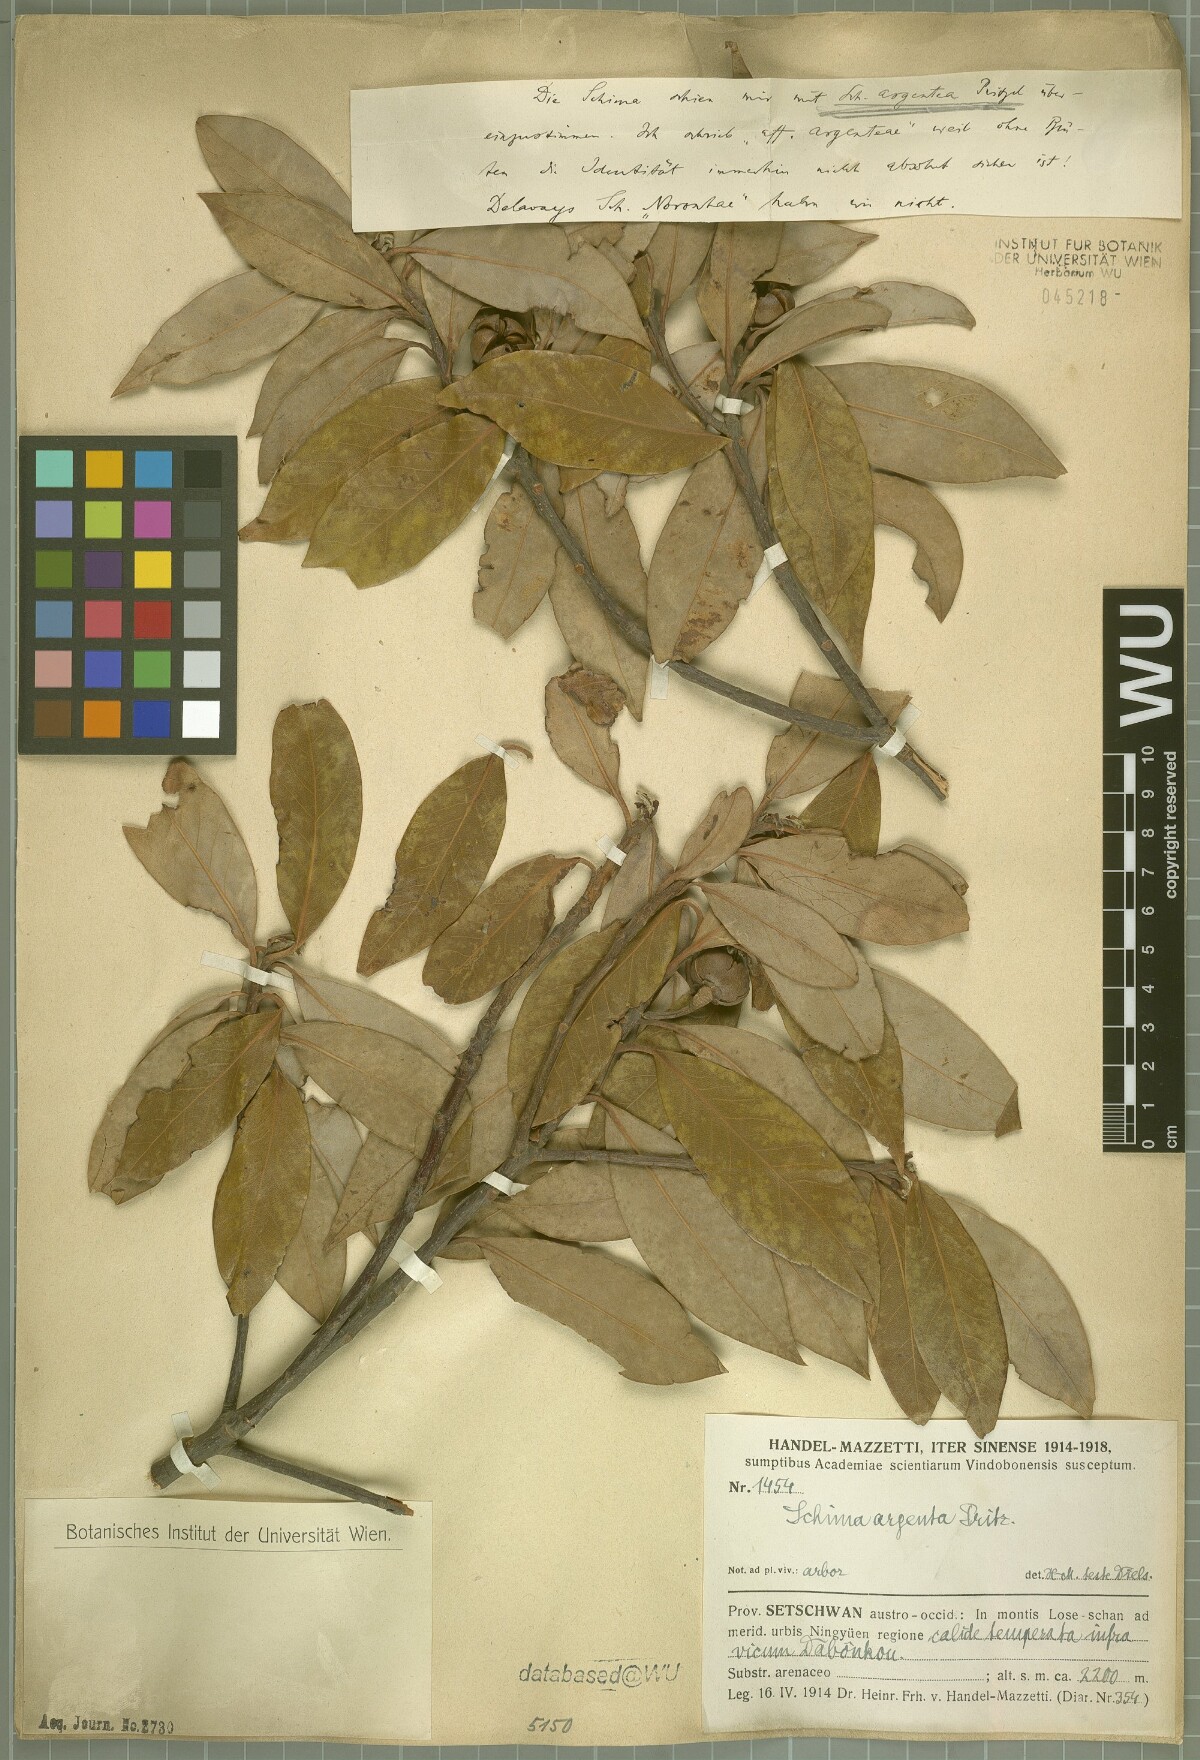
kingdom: Plantae
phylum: Tracheophyta
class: Magnoliopsida
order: Ericales
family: Theaceae
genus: Schima
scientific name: Schima argentea
